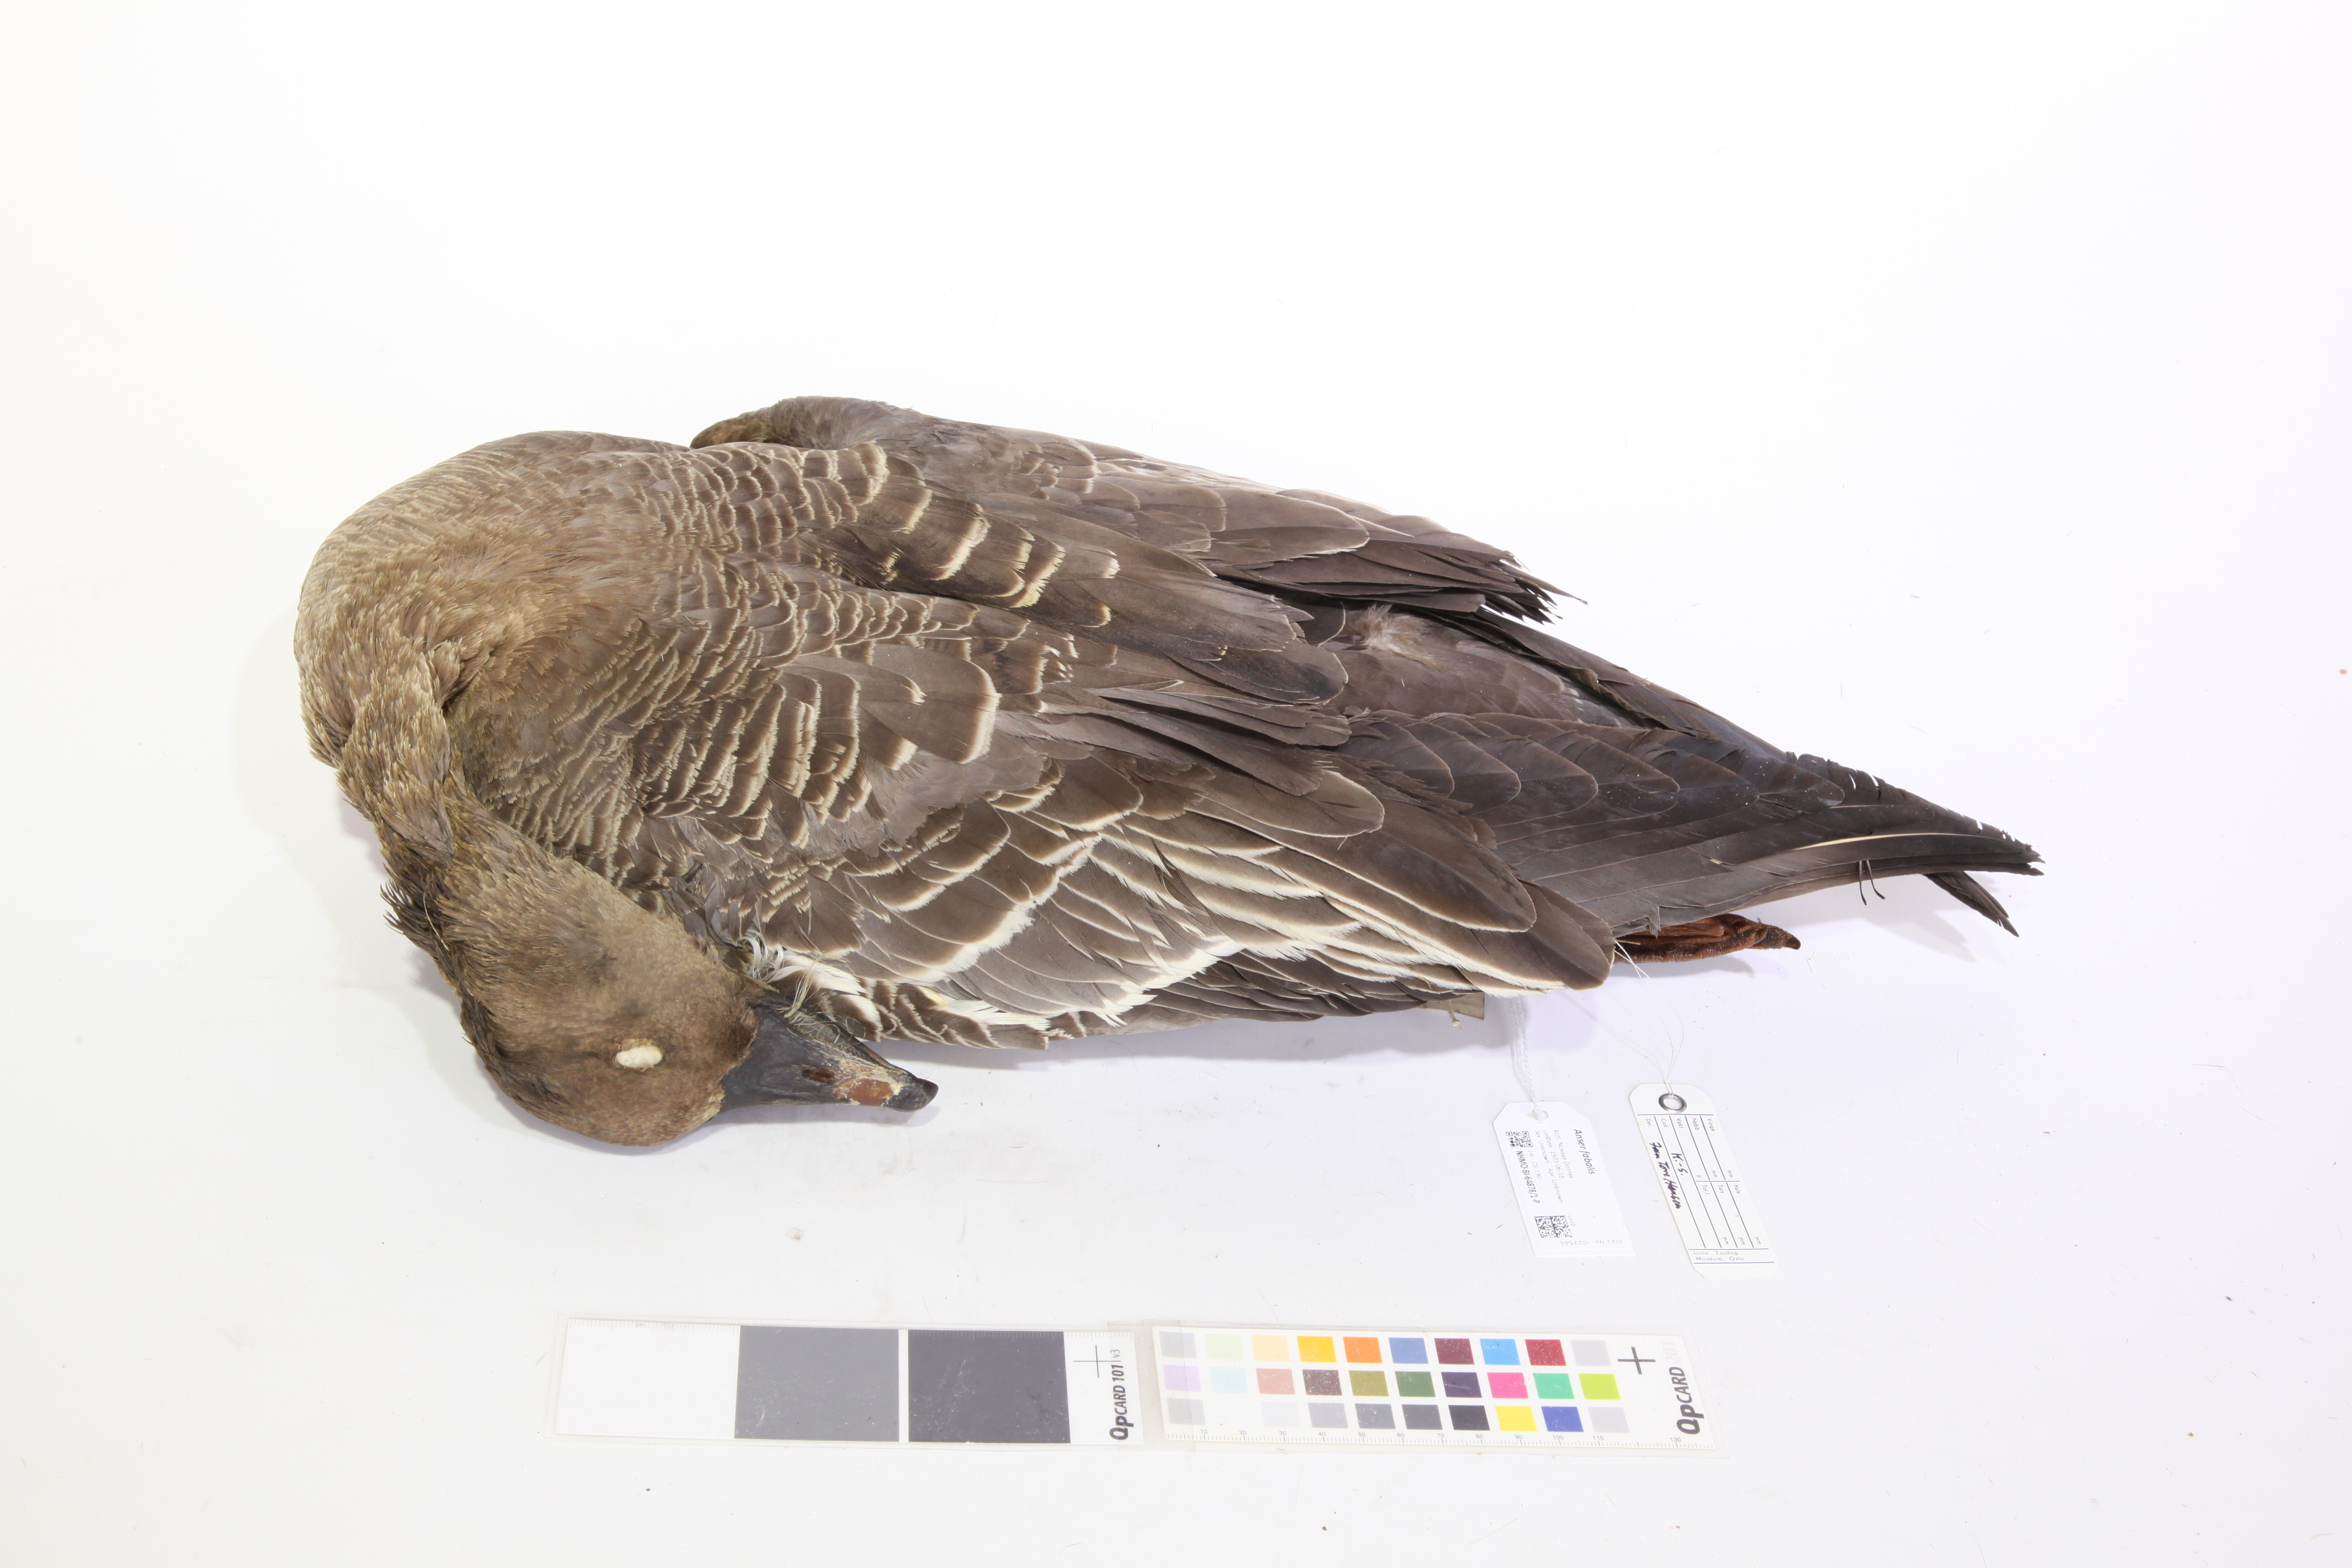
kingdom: Animalia
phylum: Chordata
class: Aves
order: Anseriformes
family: Anatidae
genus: Anser
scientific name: Anser serrirostris
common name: Tundra bean goose
